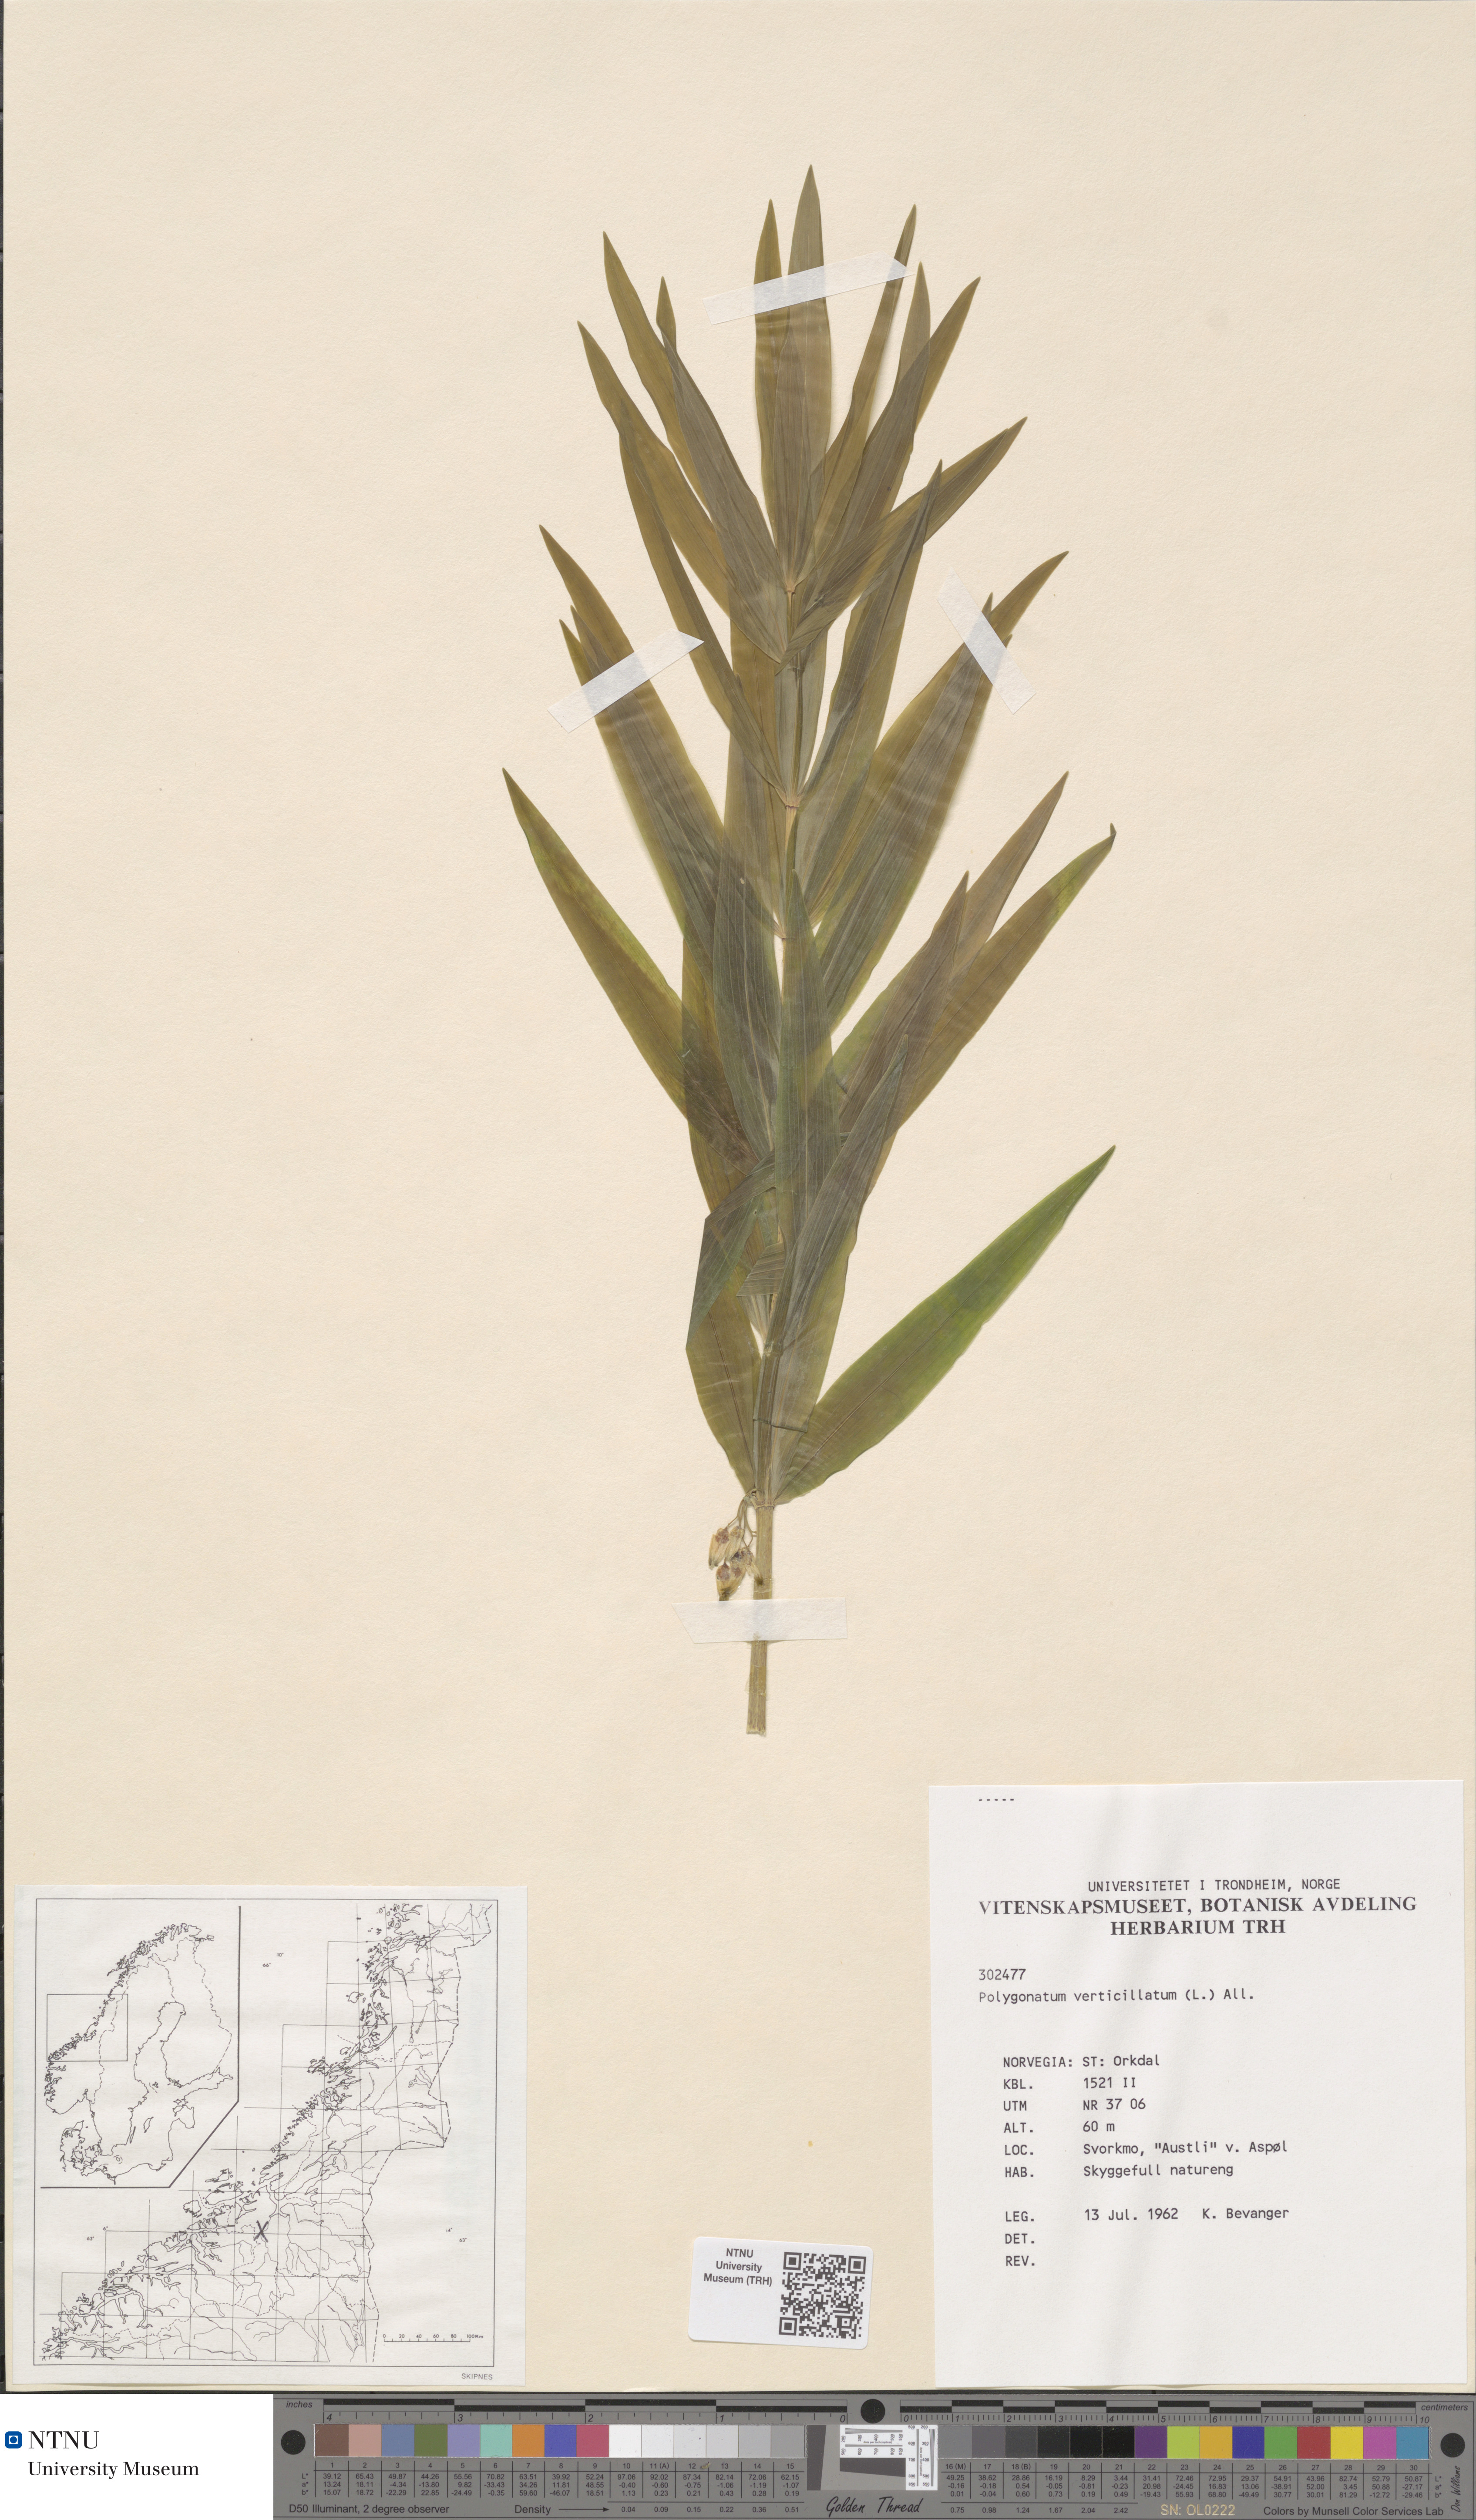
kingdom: Plantae
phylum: Tracheophyta
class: Liliopsida
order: Asparagales
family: Asparagaceae
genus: Polygonatum
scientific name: Polygonatum verticillatum
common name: Whorled solomon's-seal
